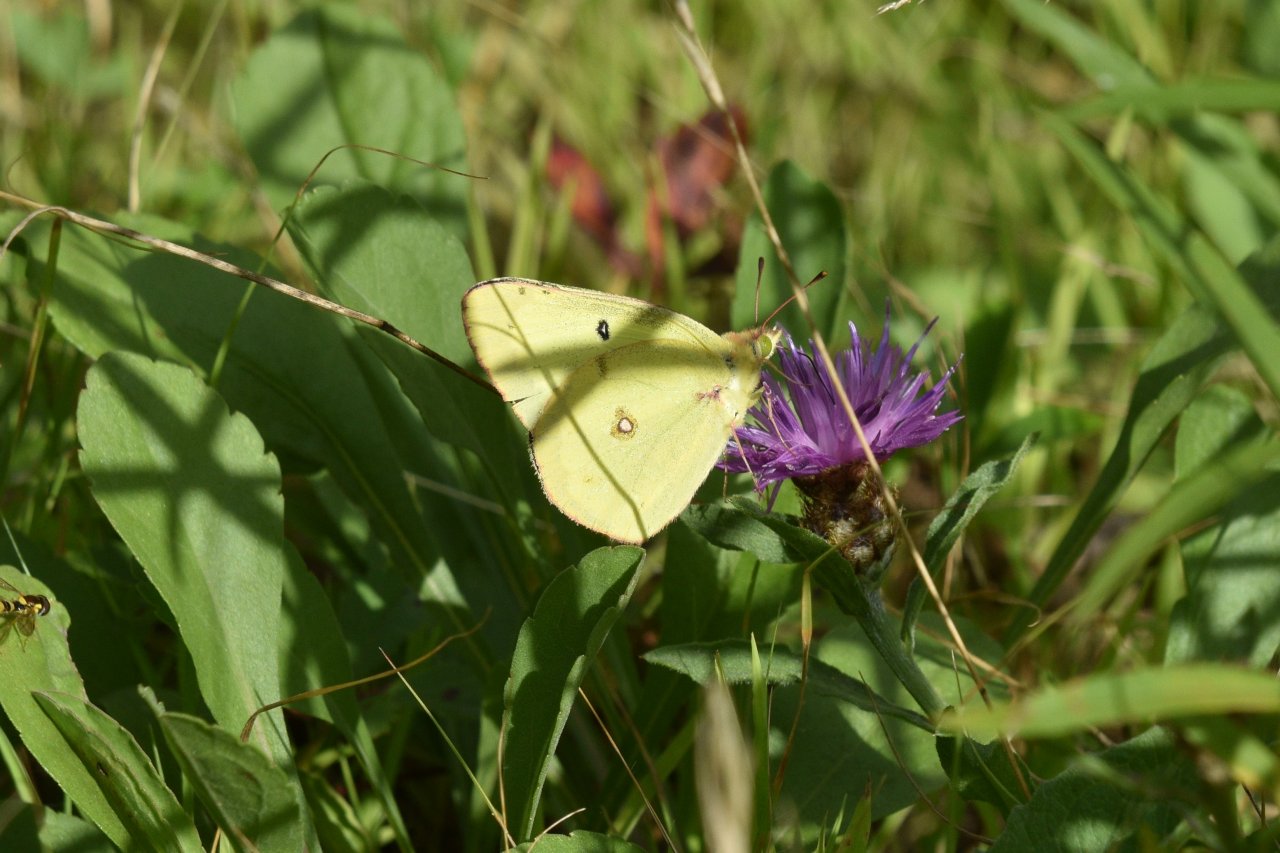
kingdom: Animalia
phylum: Arthropoda
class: Insecta
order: Lepidoptera
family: Pieridae
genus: Colias
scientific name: Colias philodice
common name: Clouded Sulphur
